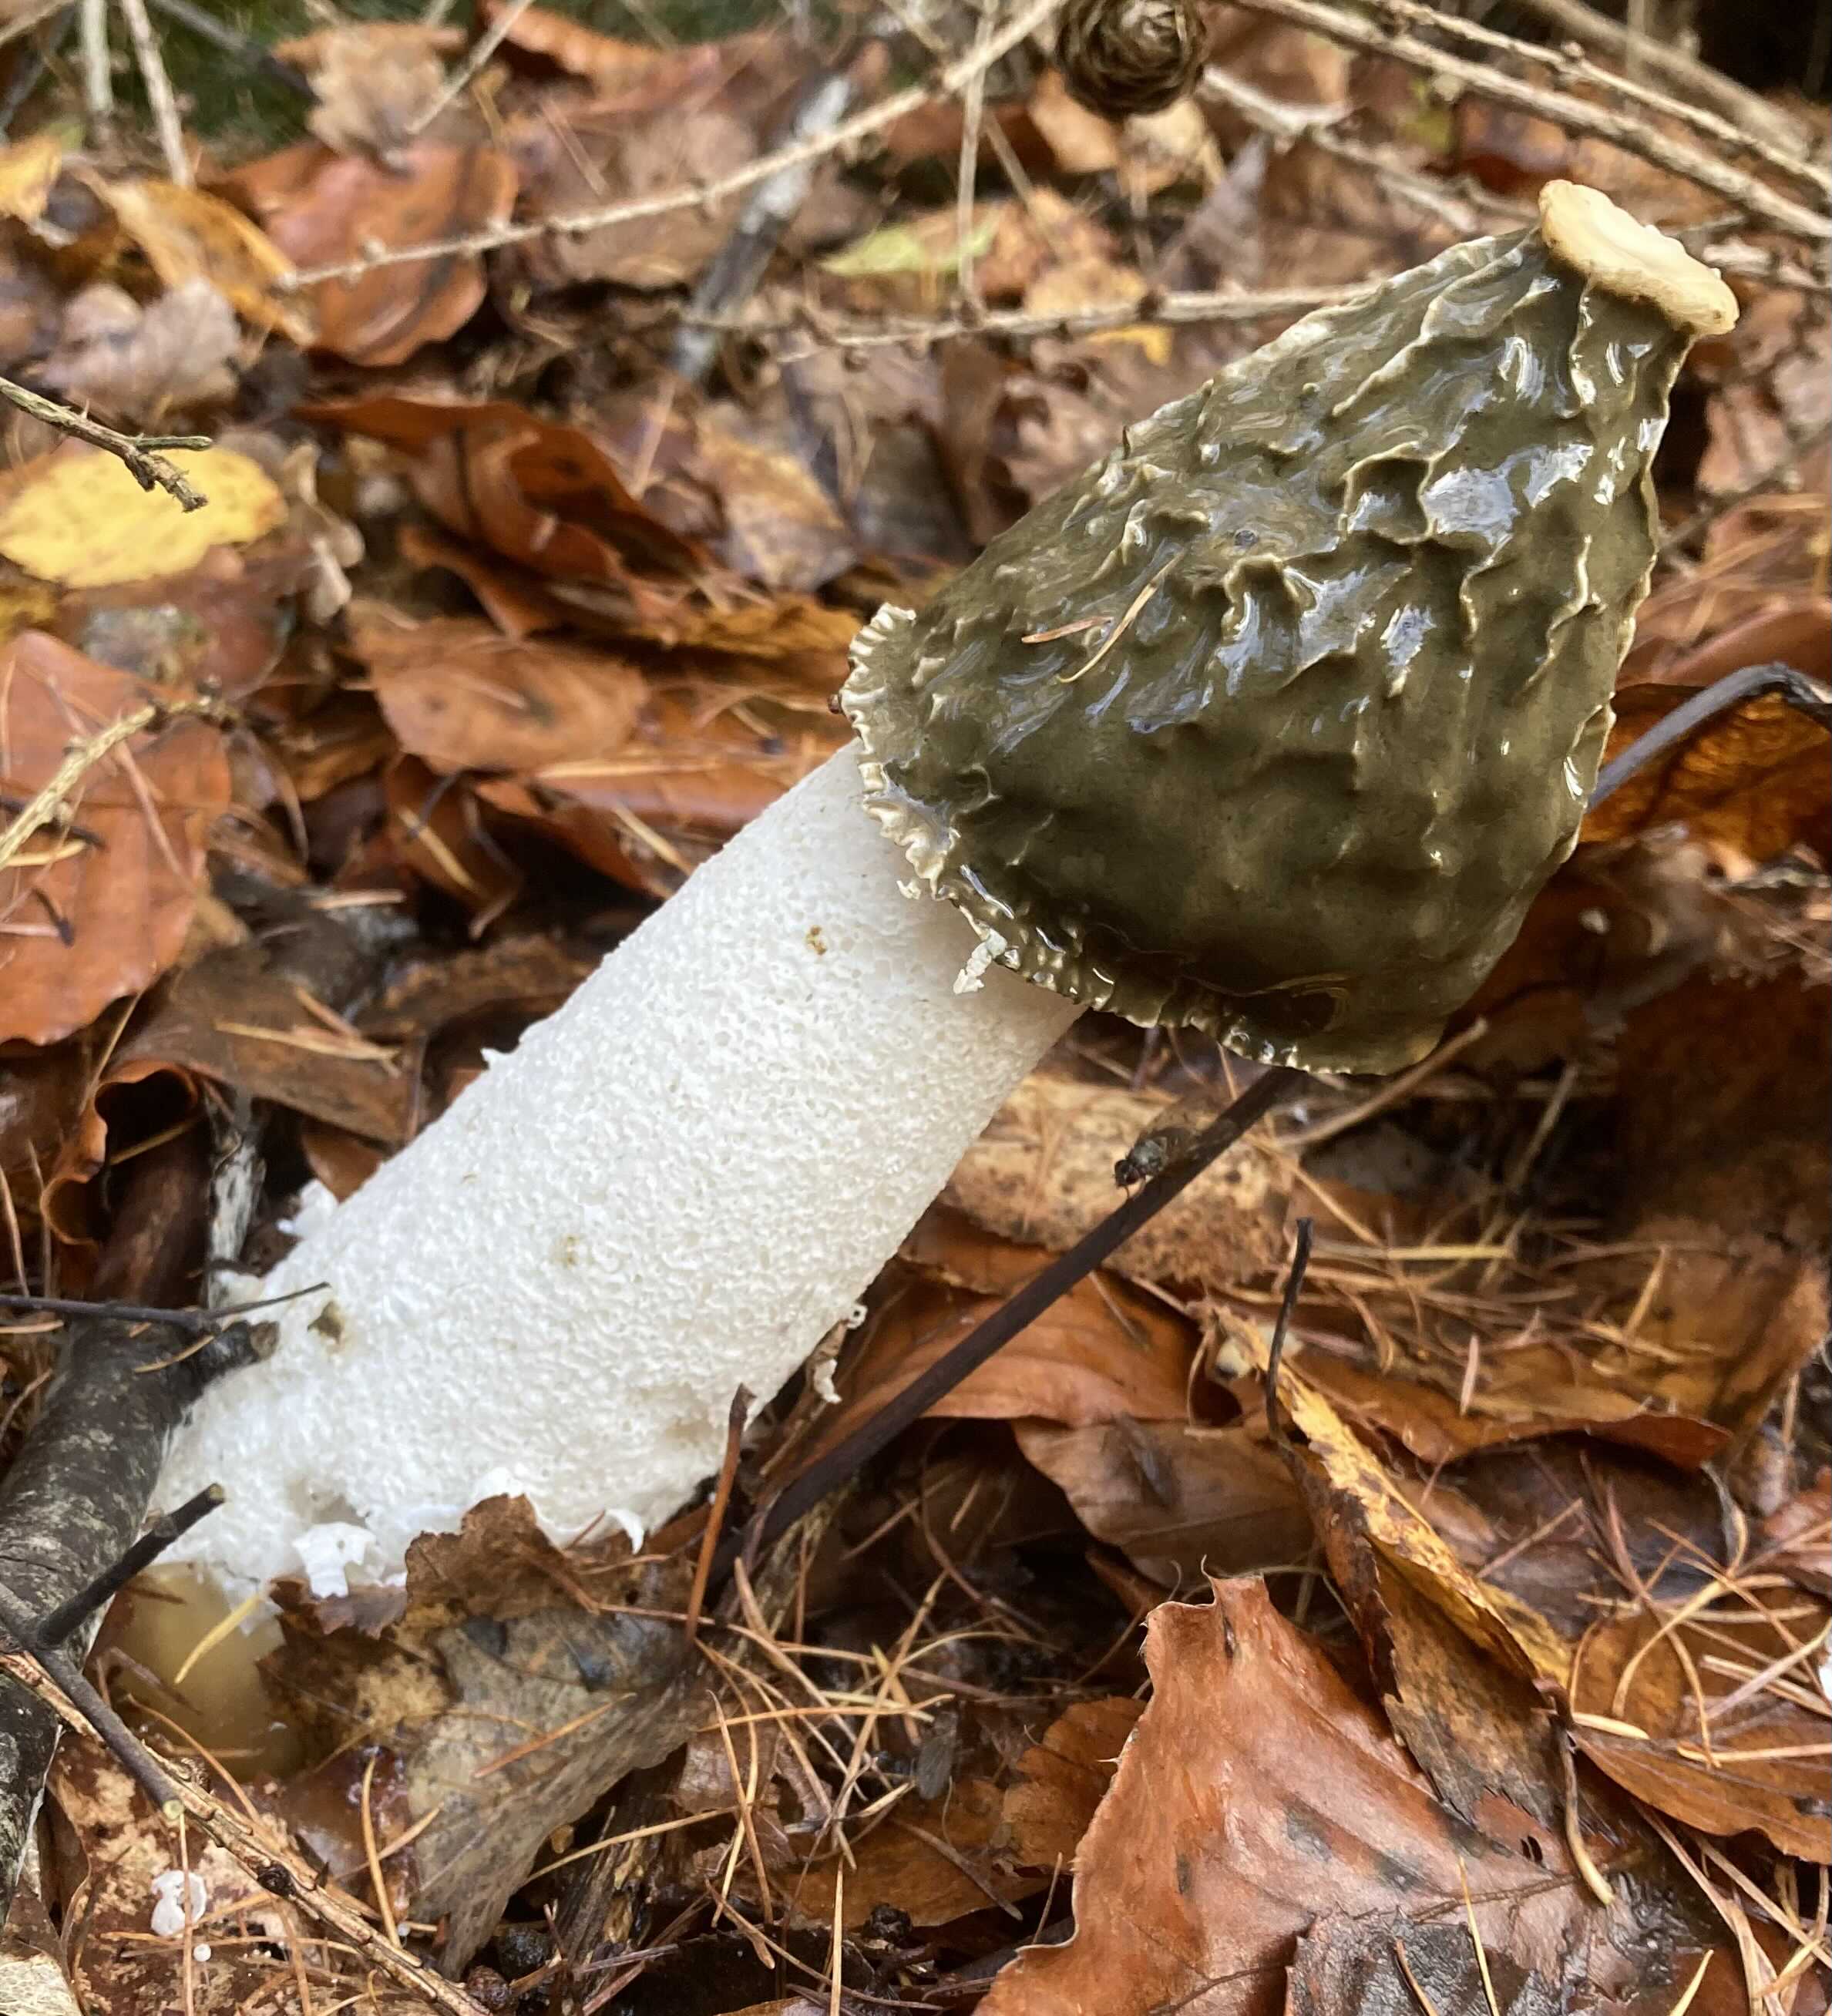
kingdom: Fungi
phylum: Basidiomycota
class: Agaricomycetes
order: Phallales
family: Phallaceae
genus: Phallus
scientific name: Phallus impudicus
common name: almindelig stinksvamp
